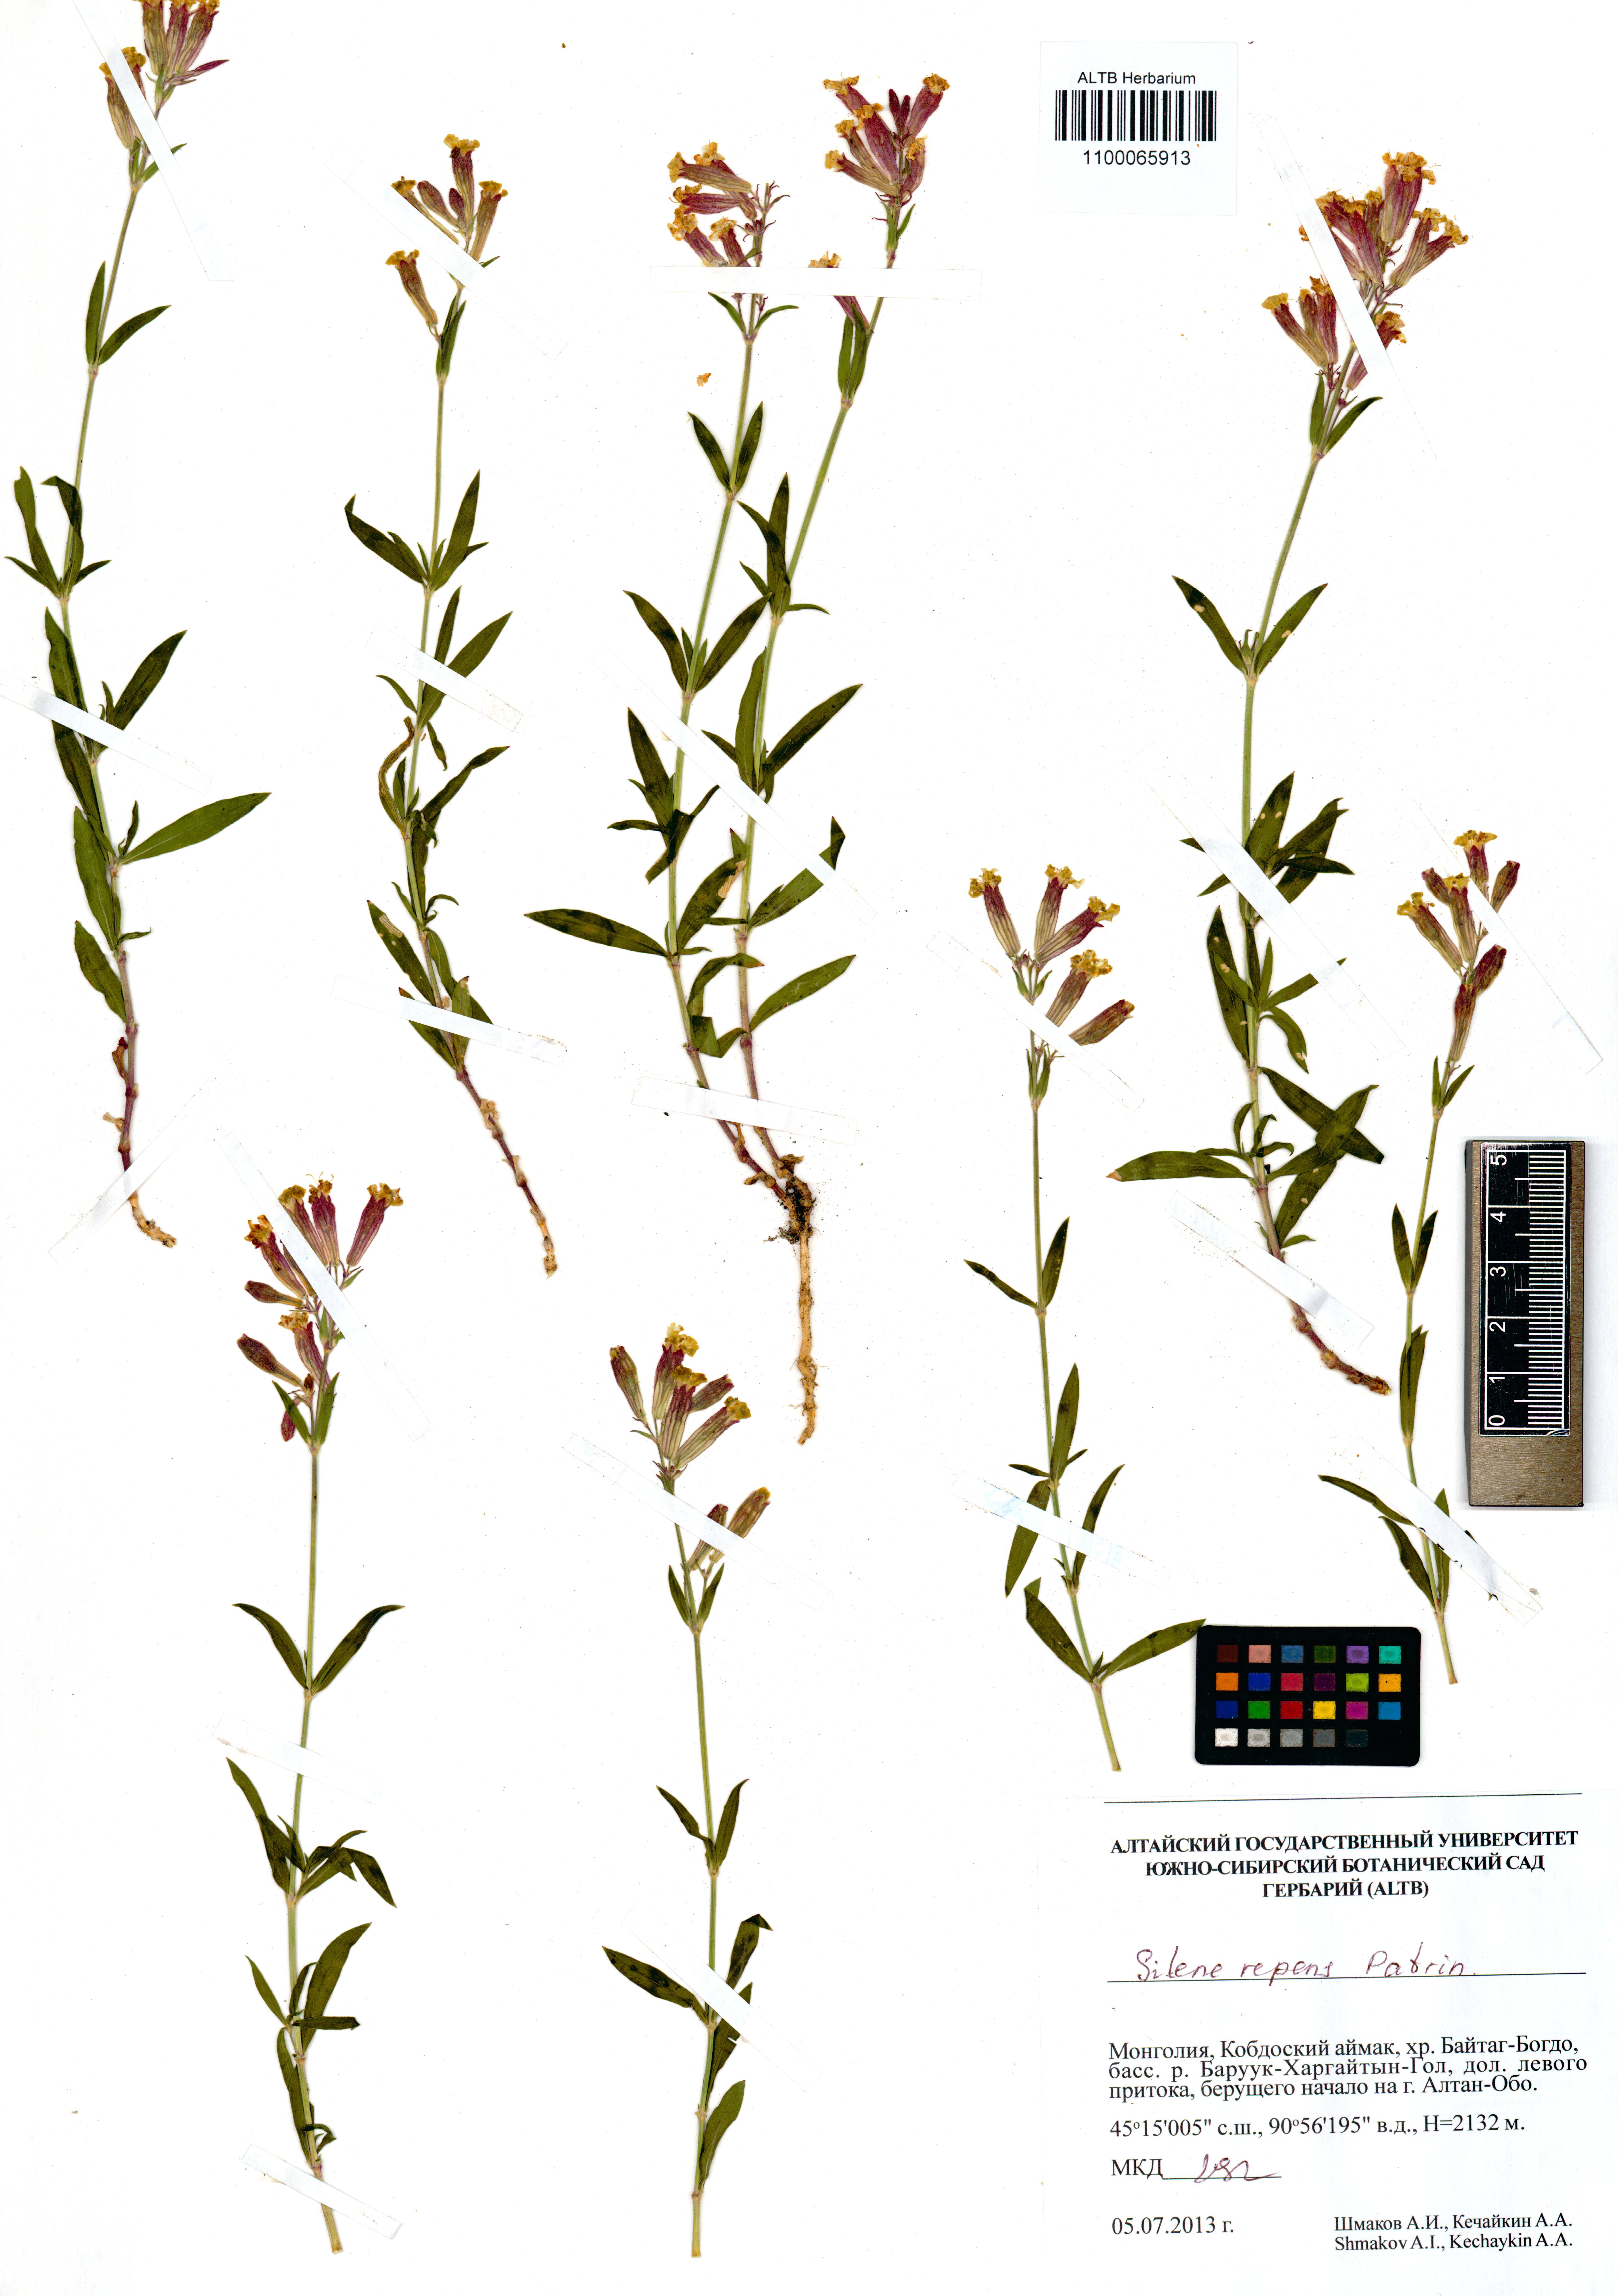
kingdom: Plantae
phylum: Tracheophyta
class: Magnoliopsida
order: Caryophyllales
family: Caryophyllaceae
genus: Silene
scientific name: Silene repens
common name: Pink campion
